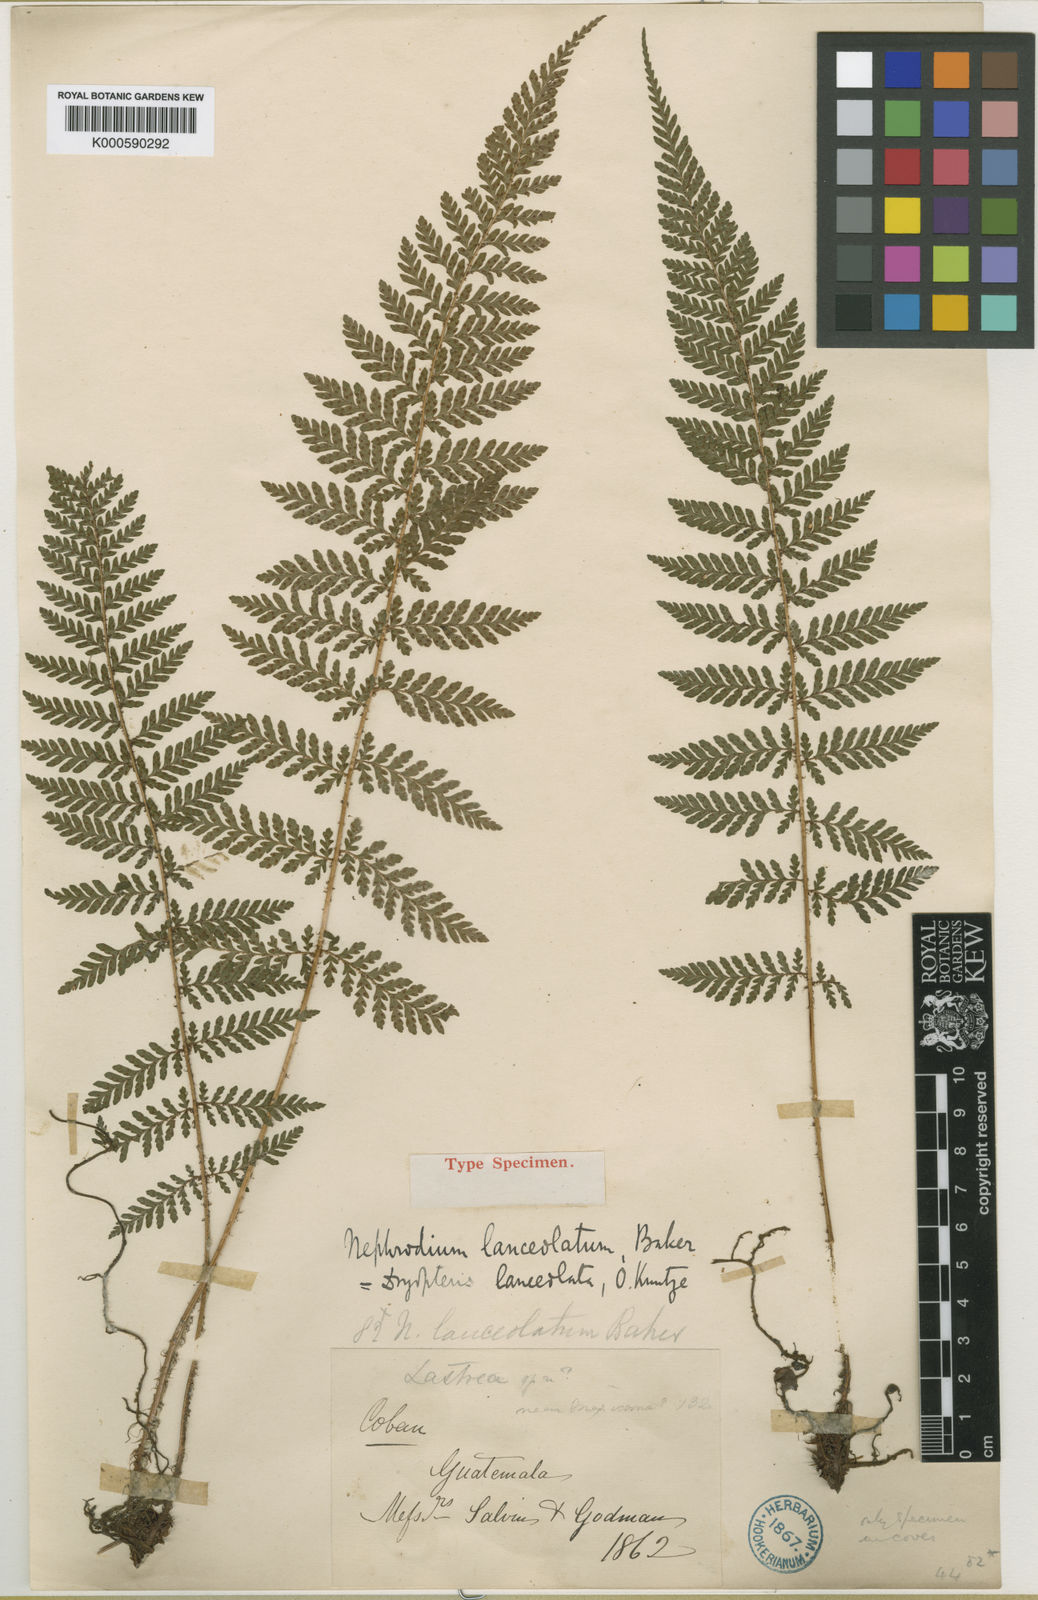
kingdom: Plantae
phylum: Tracheophyta
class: Polypodiopsida
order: Polypodiales
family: Dryopteridaceae
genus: Ctenitis
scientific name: Ctenitis lanceolata
